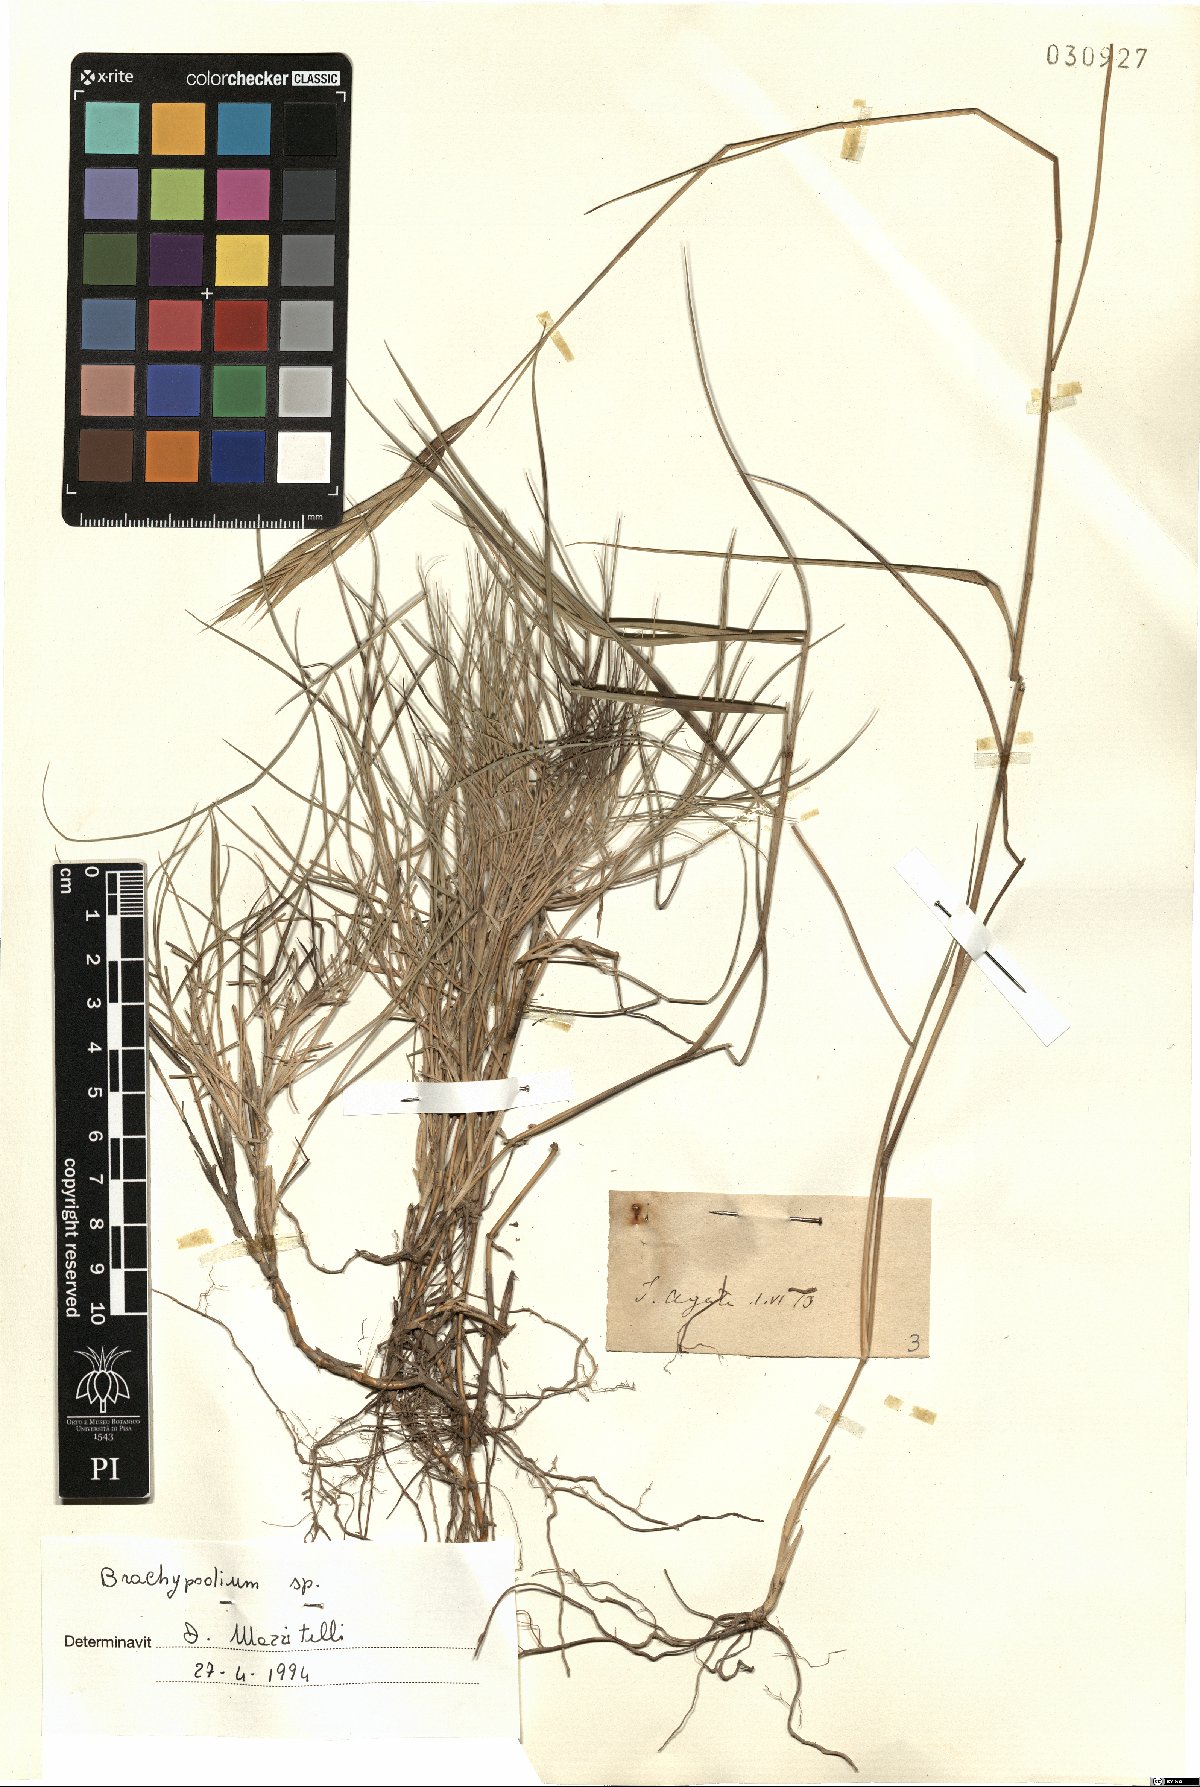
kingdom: Plantae
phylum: Tracheophyta
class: Liliopsida
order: Poales
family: Poaceae
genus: Brachypodium
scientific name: Brachypodium
